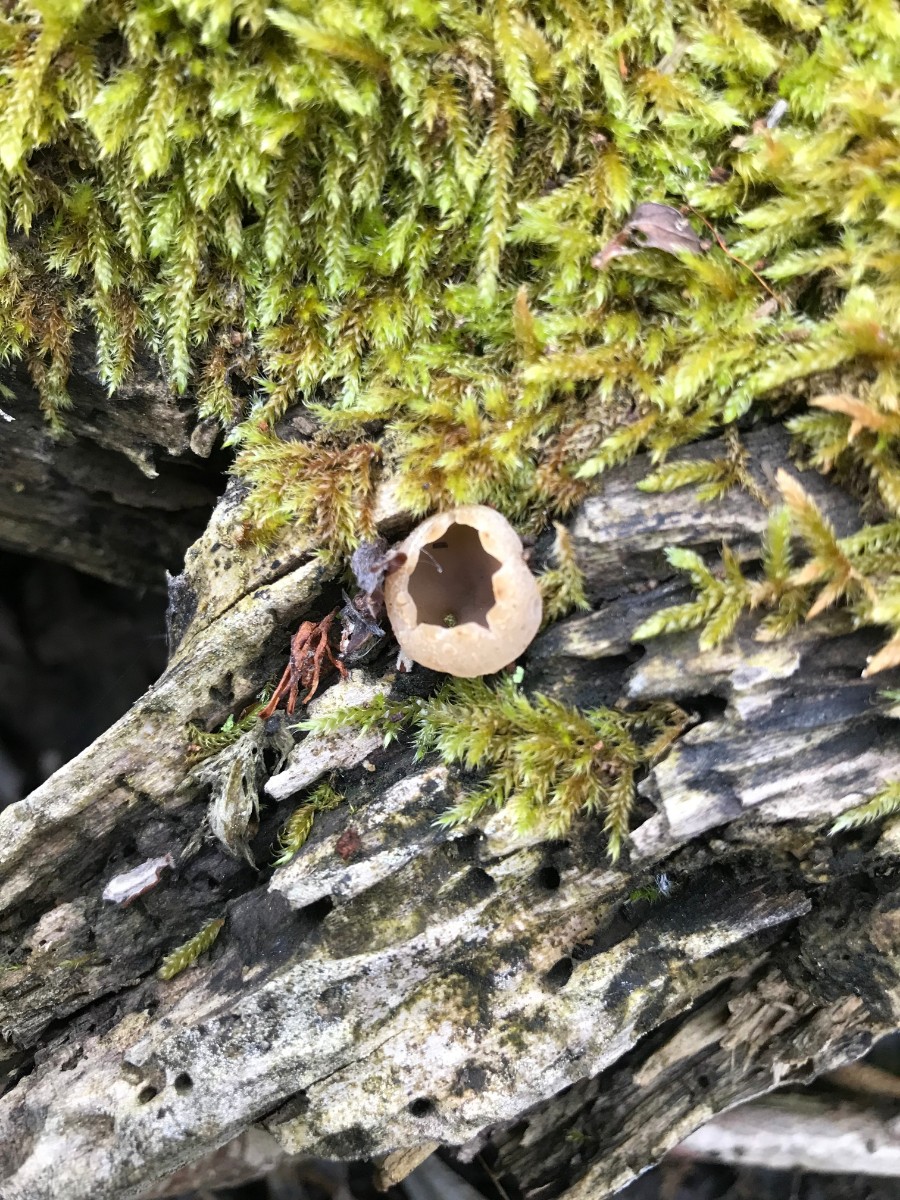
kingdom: Fungi
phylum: Ascomycota
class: Pezizomycetes
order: Pezizales
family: Pezizaceae
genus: Peziza
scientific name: Peziza
